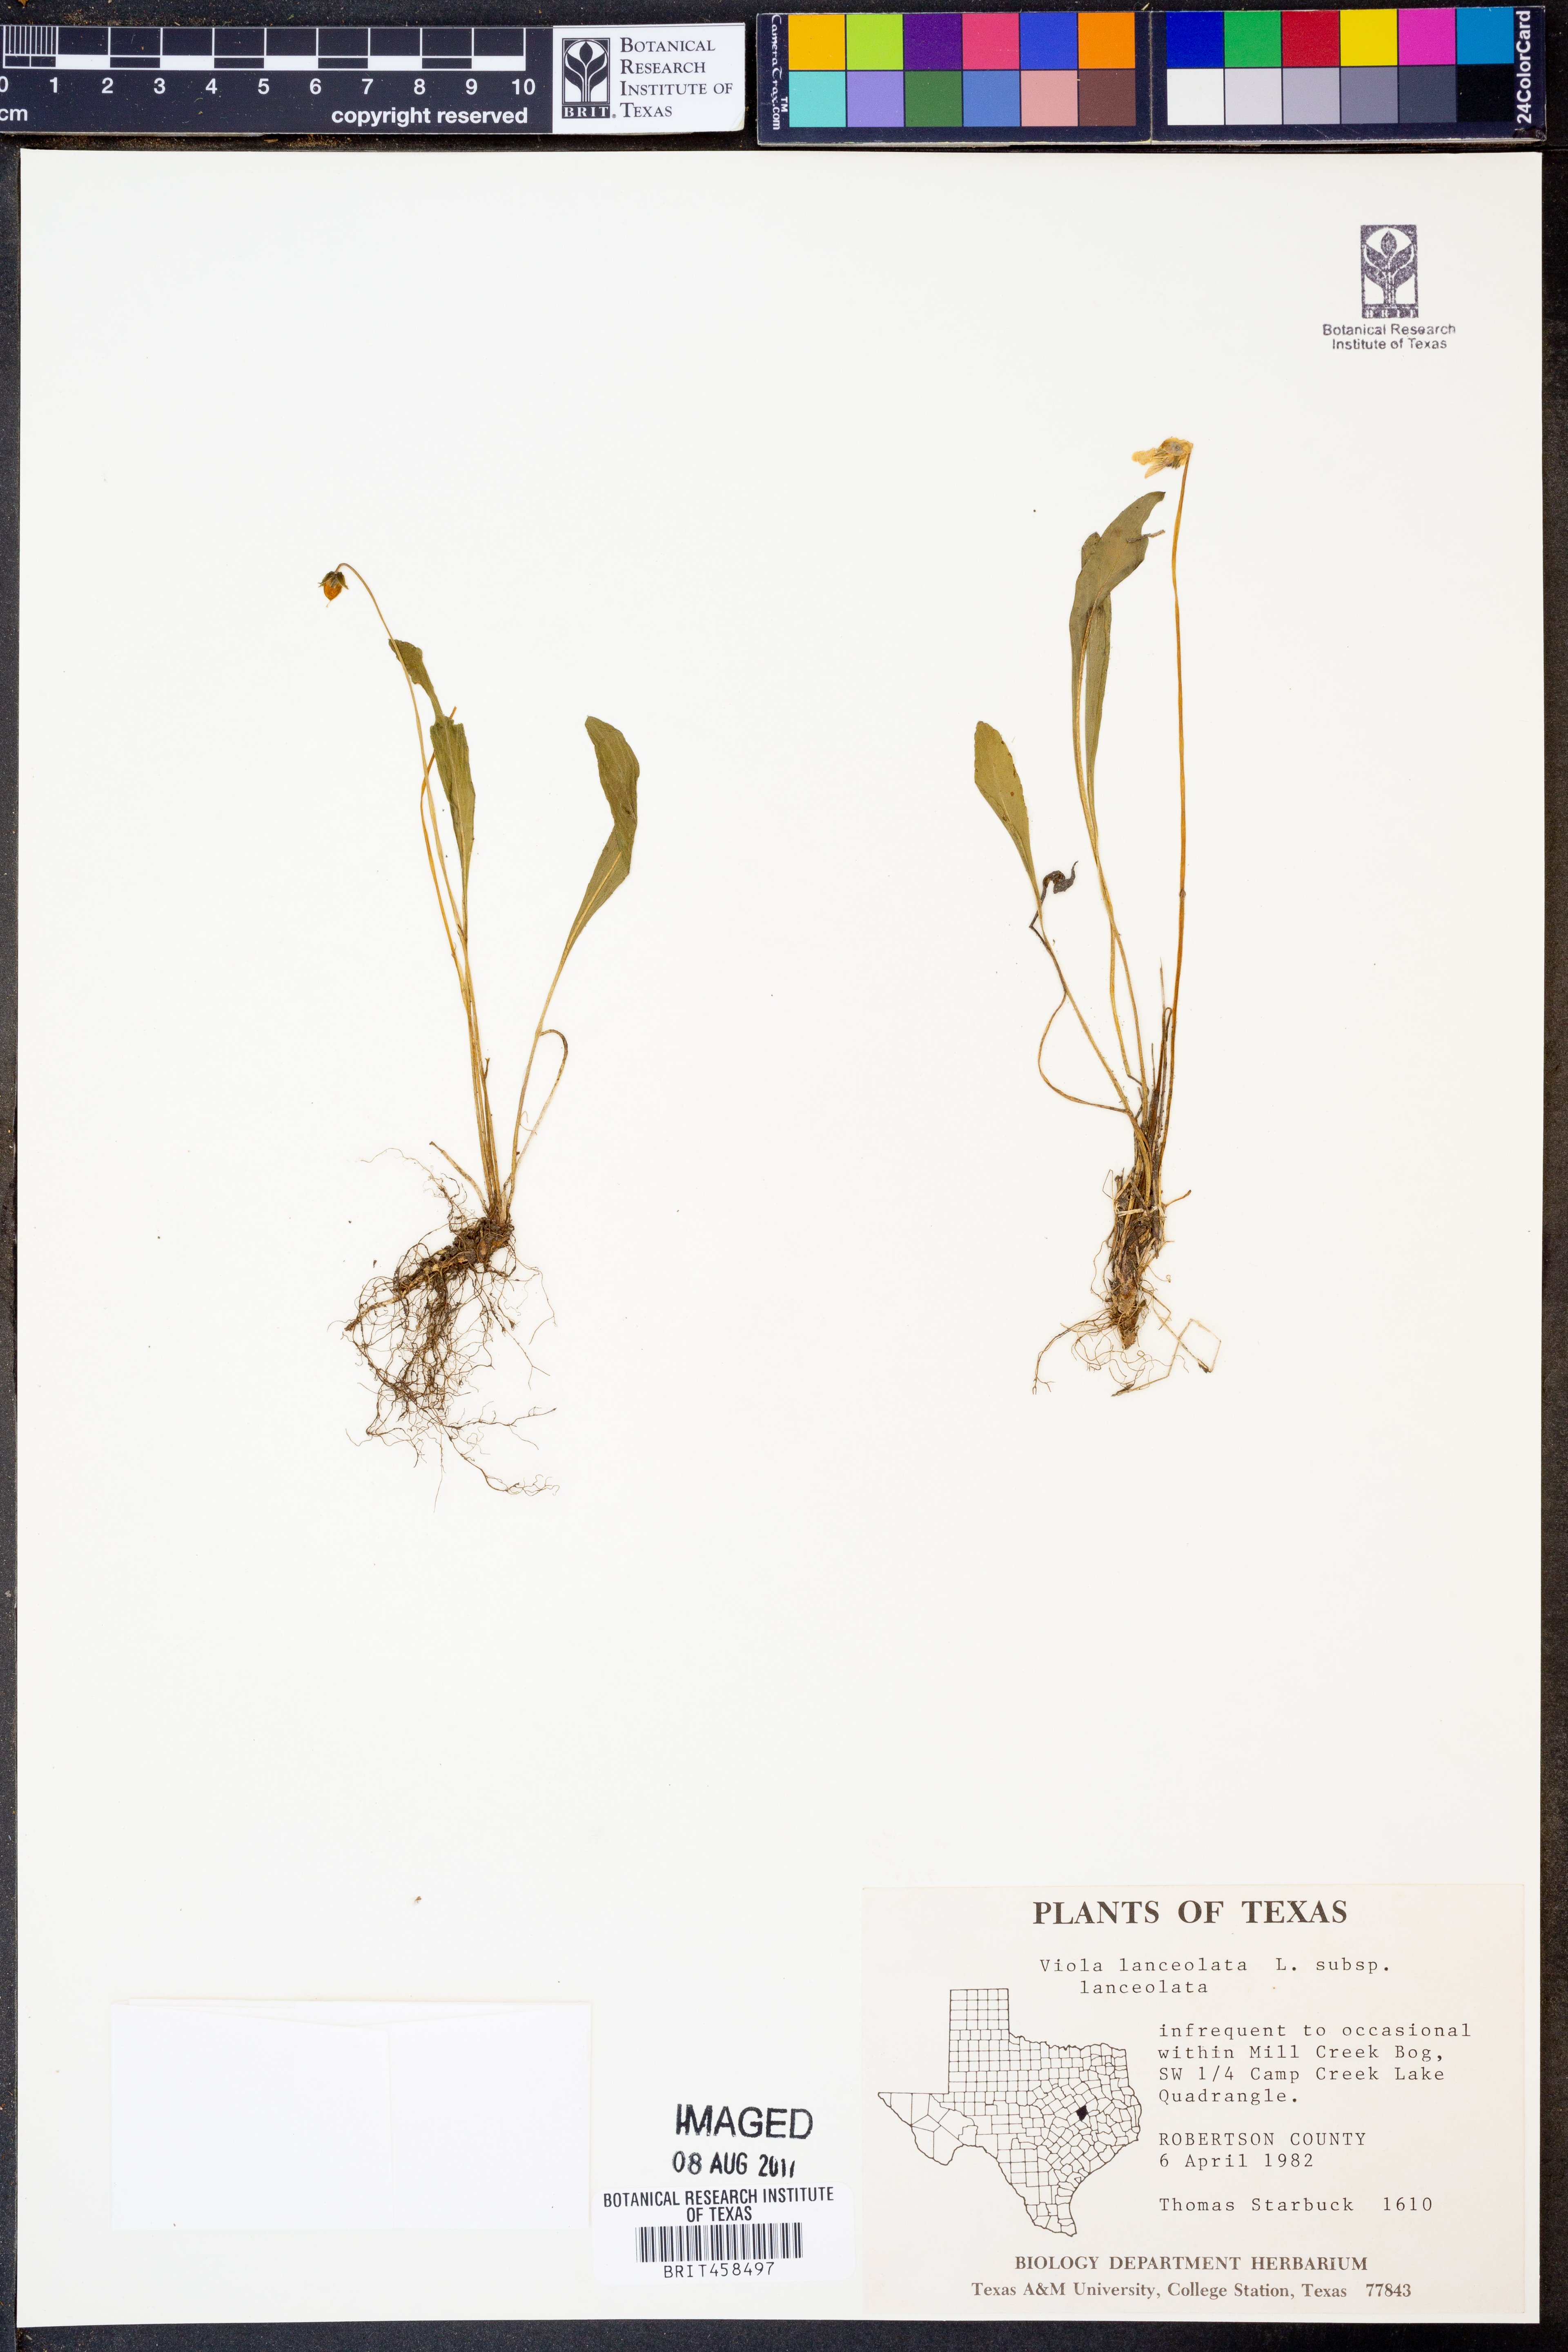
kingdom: Plantae
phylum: Tracheophyta
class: Magnoliopsida
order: Malpighiales
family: Violaceae
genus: Viola
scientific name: Viola lanceolata
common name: Bog white violet
